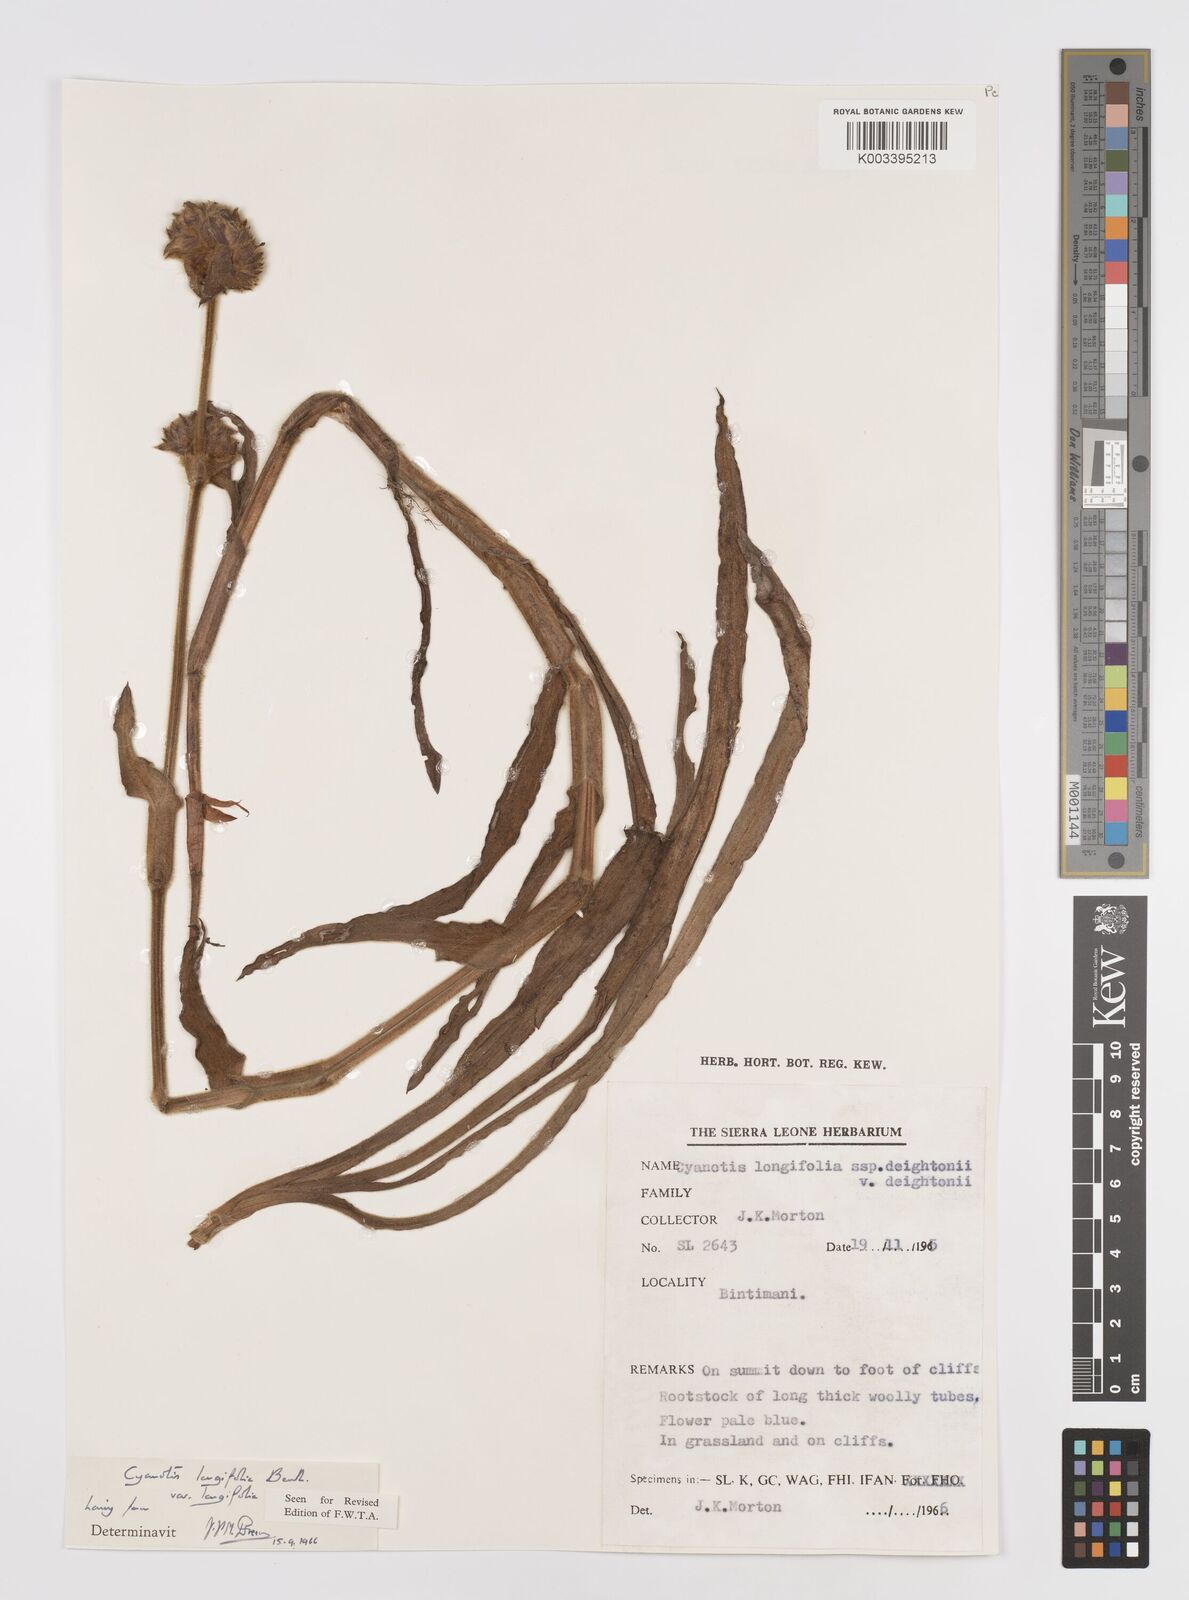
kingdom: Plantae
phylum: Tracheophyta
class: Liliopsida
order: Commelinales
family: Commelinaceae
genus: Cyanotis
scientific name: Cyanotis
